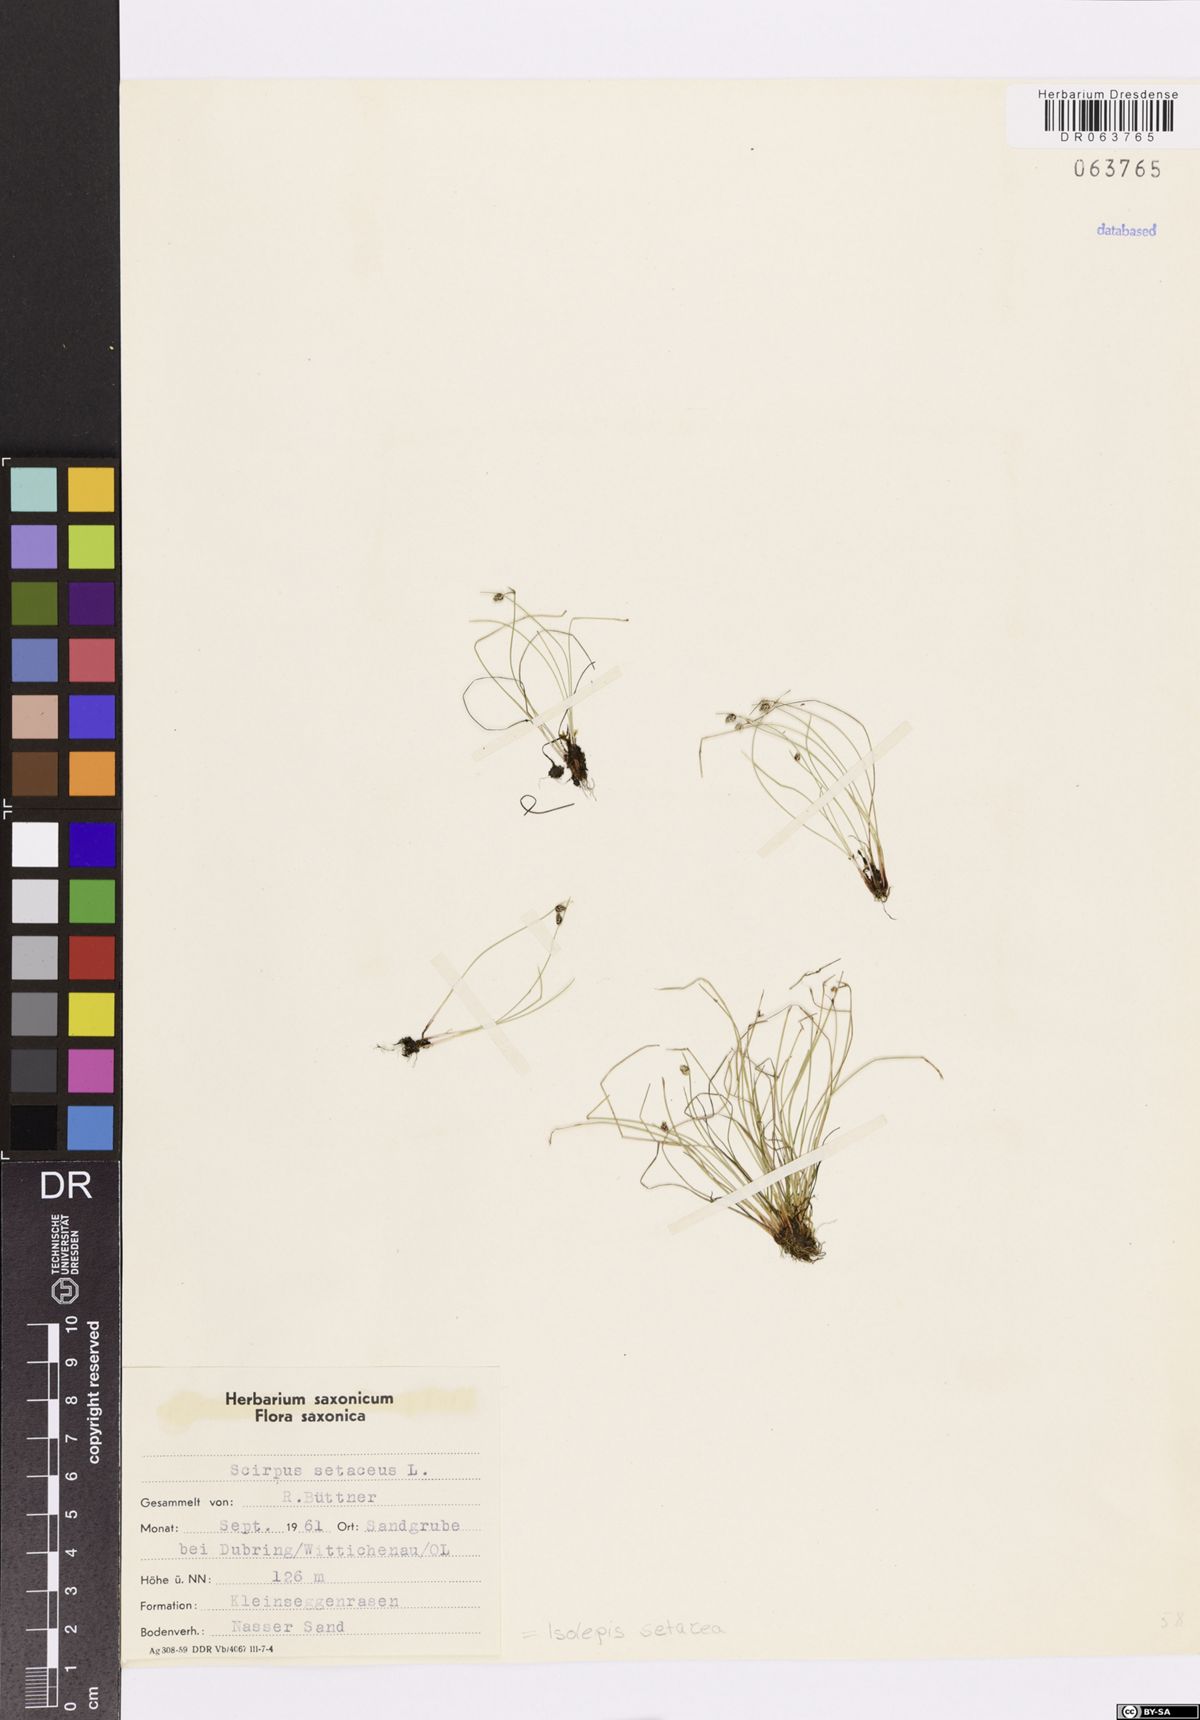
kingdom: Plantae
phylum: Tracheophyta
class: Liliopsida
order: Poales
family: Cyperaceae
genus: Isolepis
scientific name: Isolepis setacea
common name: Bristle club-rush
